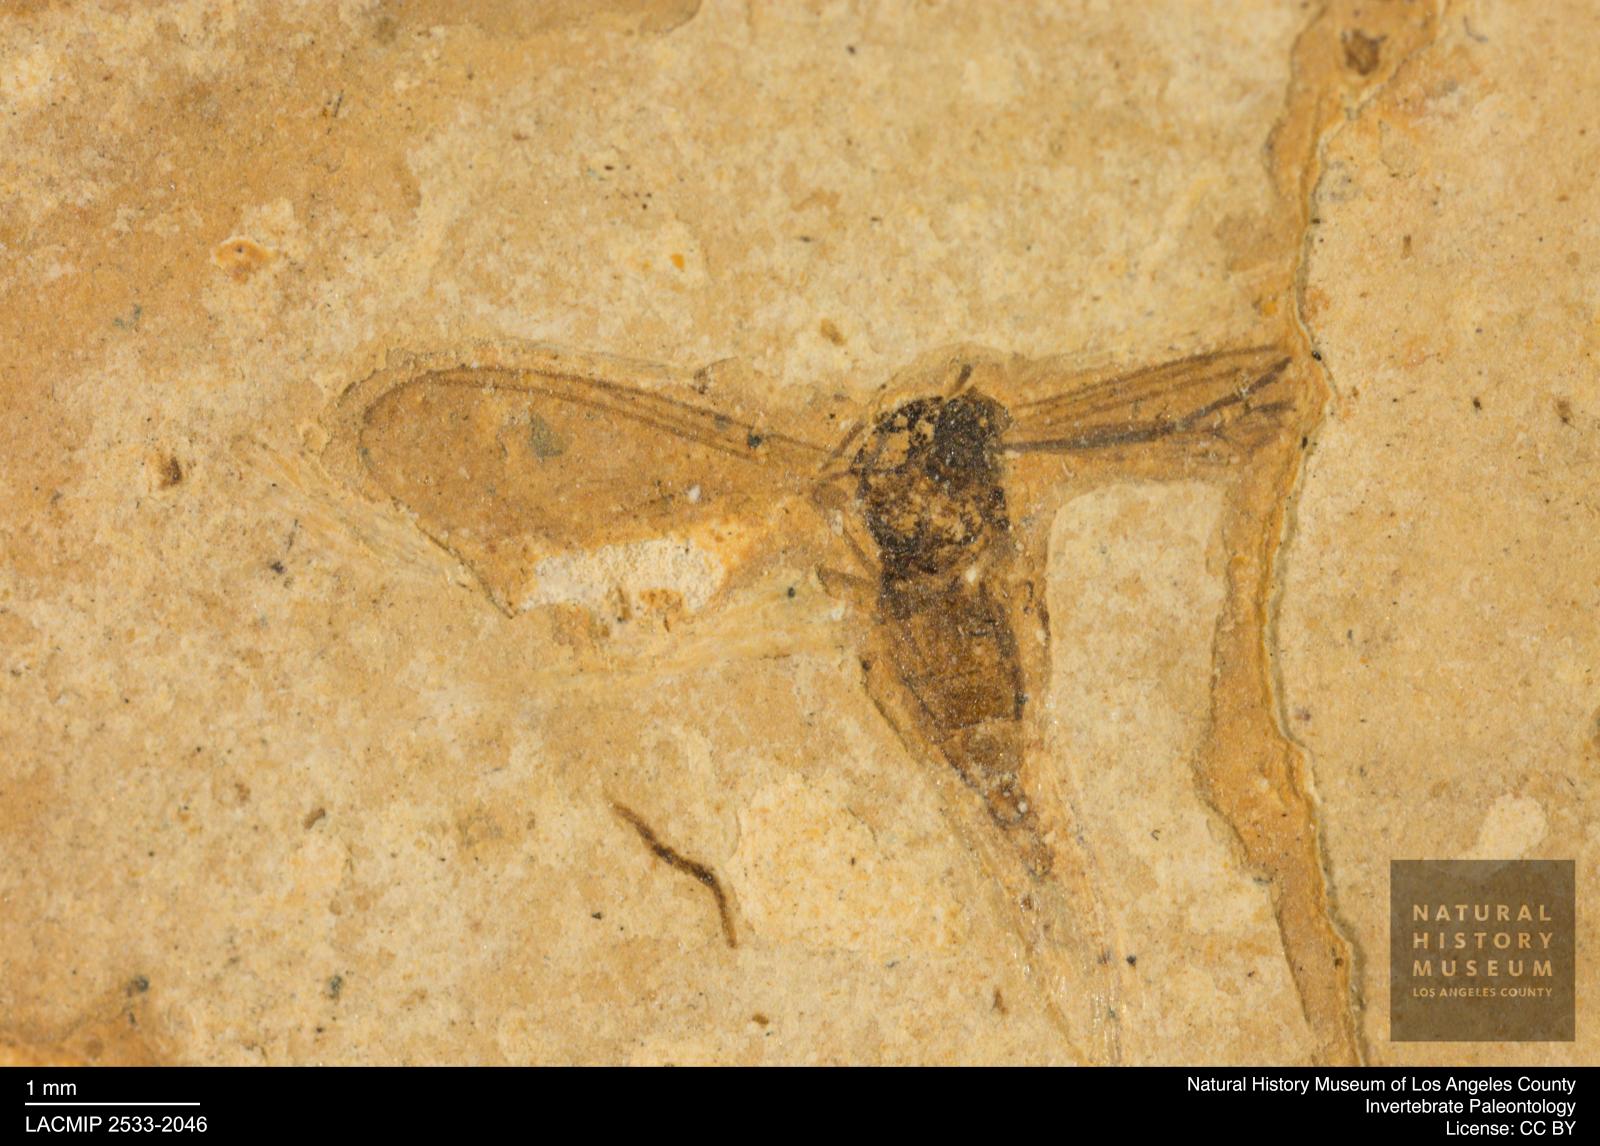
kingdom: Animalia
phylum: Arthropoda
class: Insecta
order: Diptera
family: Sciaridae
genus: Sciara
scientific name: Sciara winnertzii
